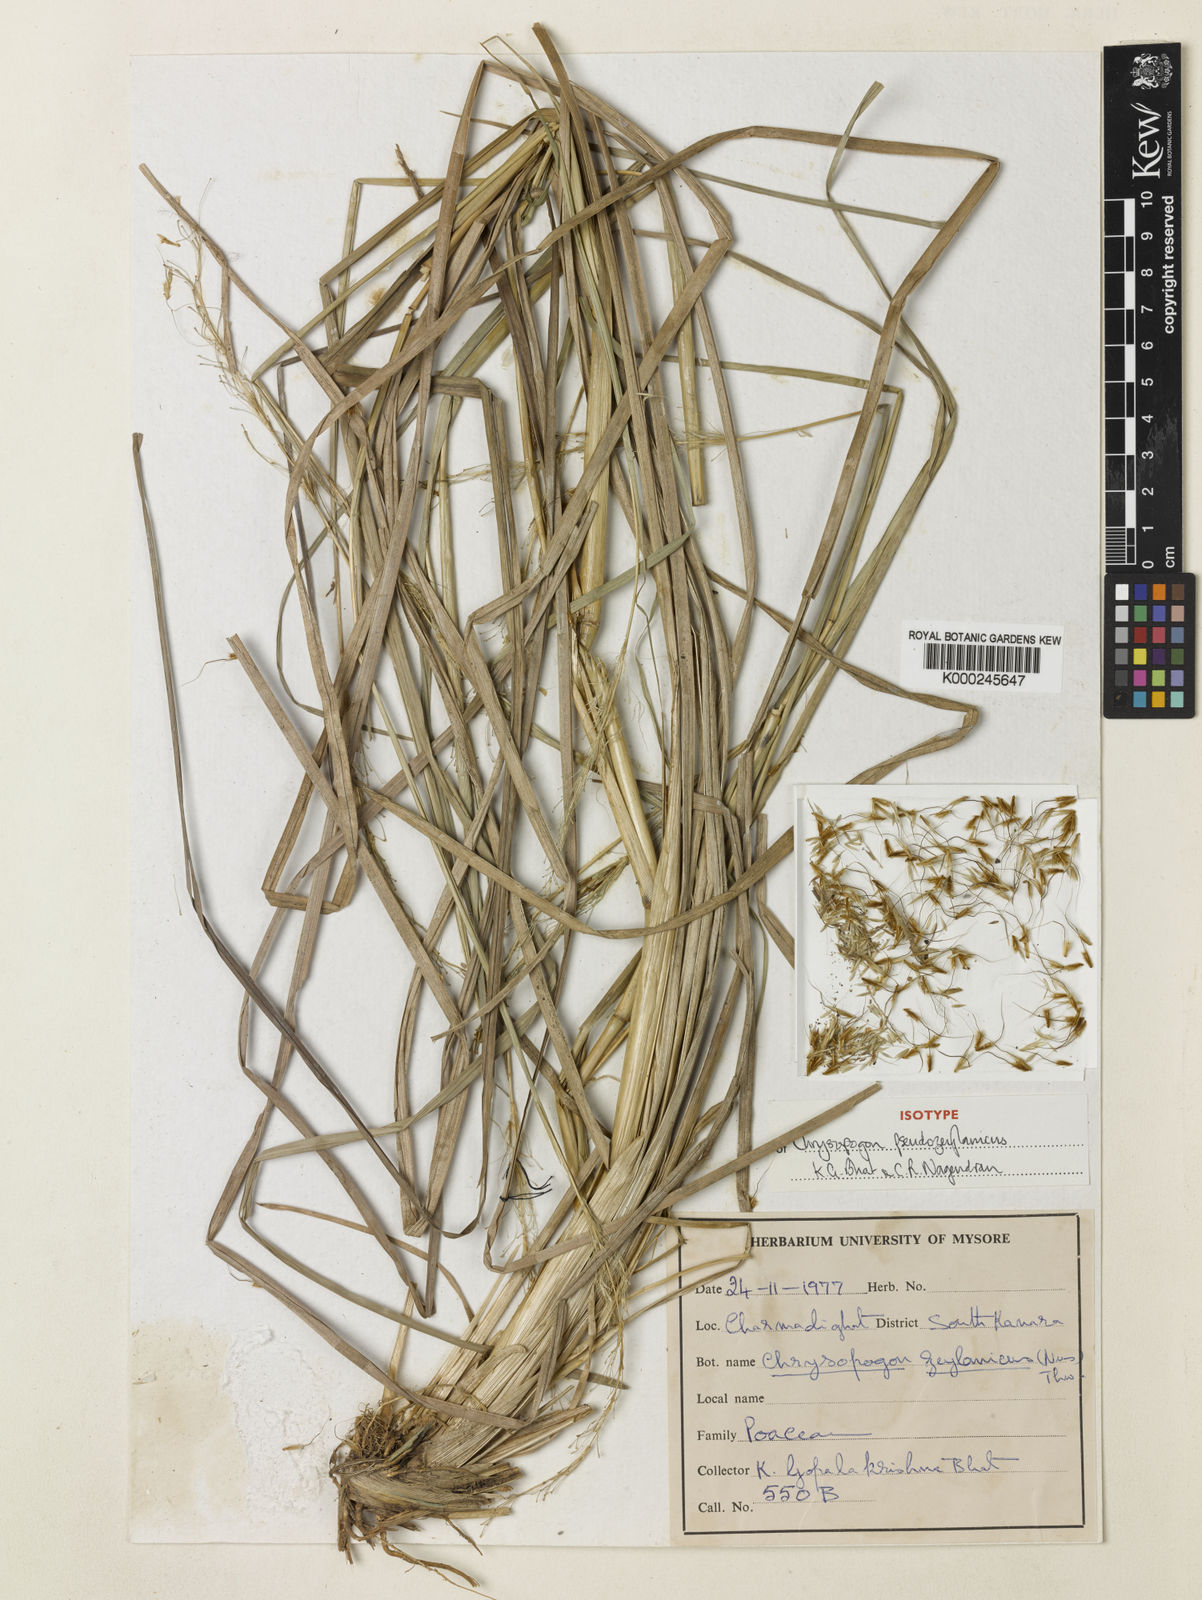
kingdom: Plantae
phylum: Tracheophyta
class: Liliopsida
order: Poales
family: Poaceae
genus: Chrysopogon
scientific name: Chrysopogon pseudozeylanicus
